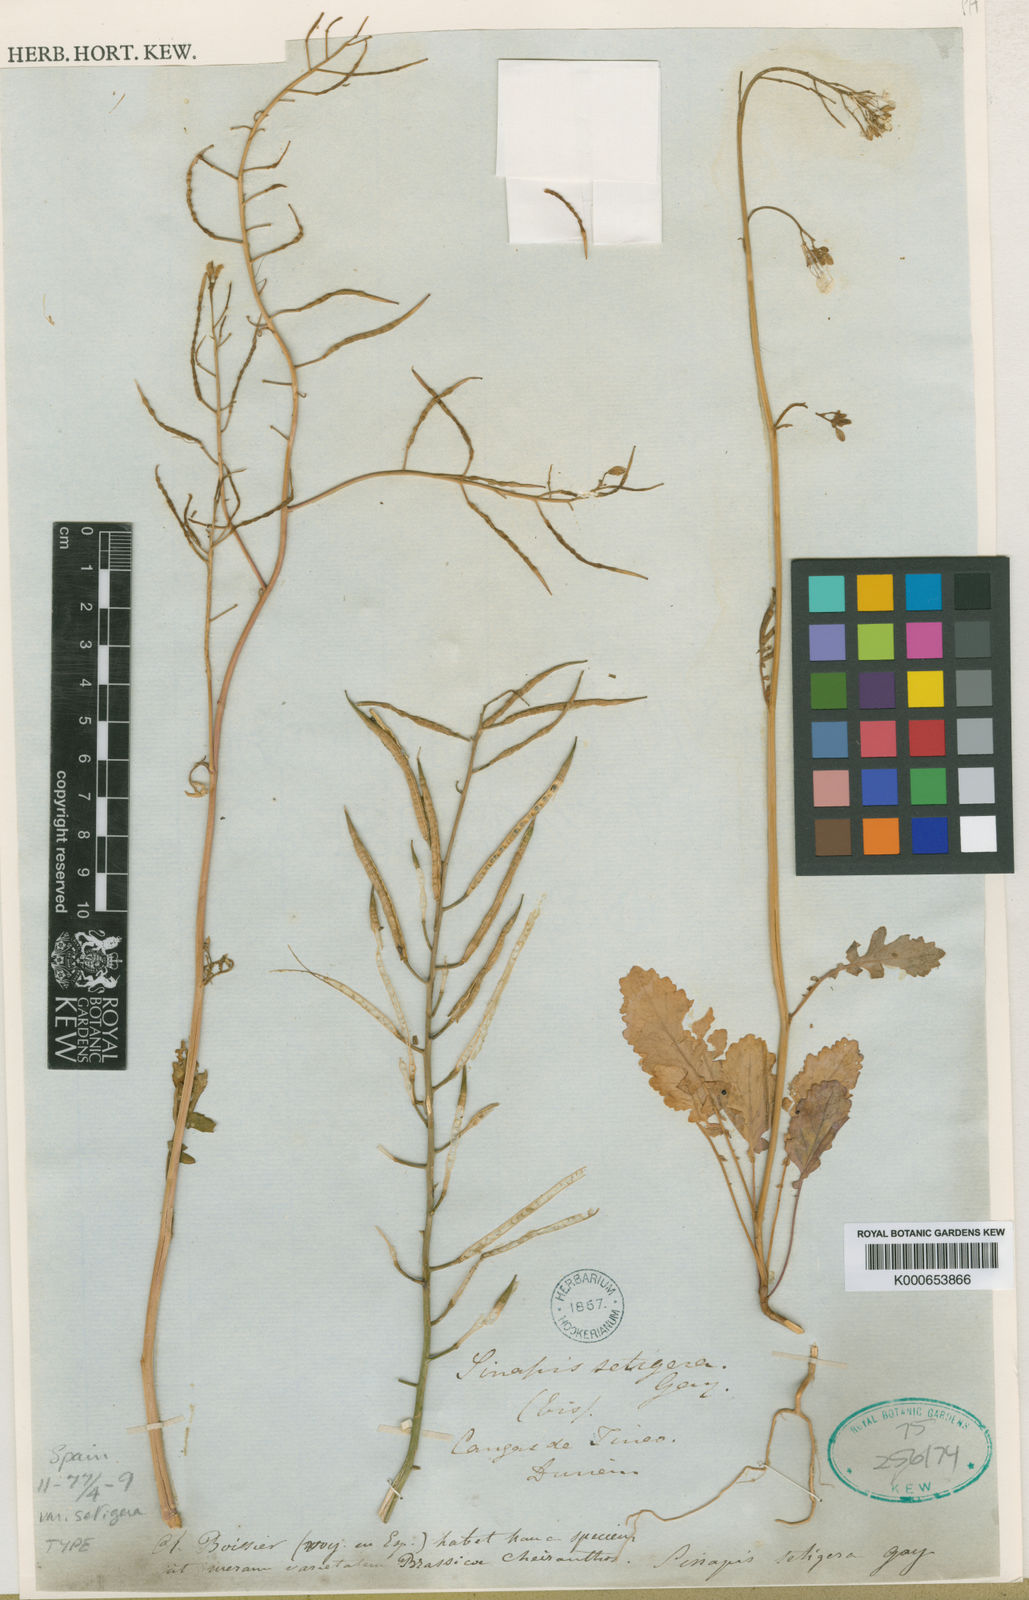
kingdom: Plantae
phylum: Tracheophyta
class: Magnoliopsida
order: Brassicales
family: Brassicaceae
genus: Coincya
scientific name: Coincya monensis
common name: Star-mustard
